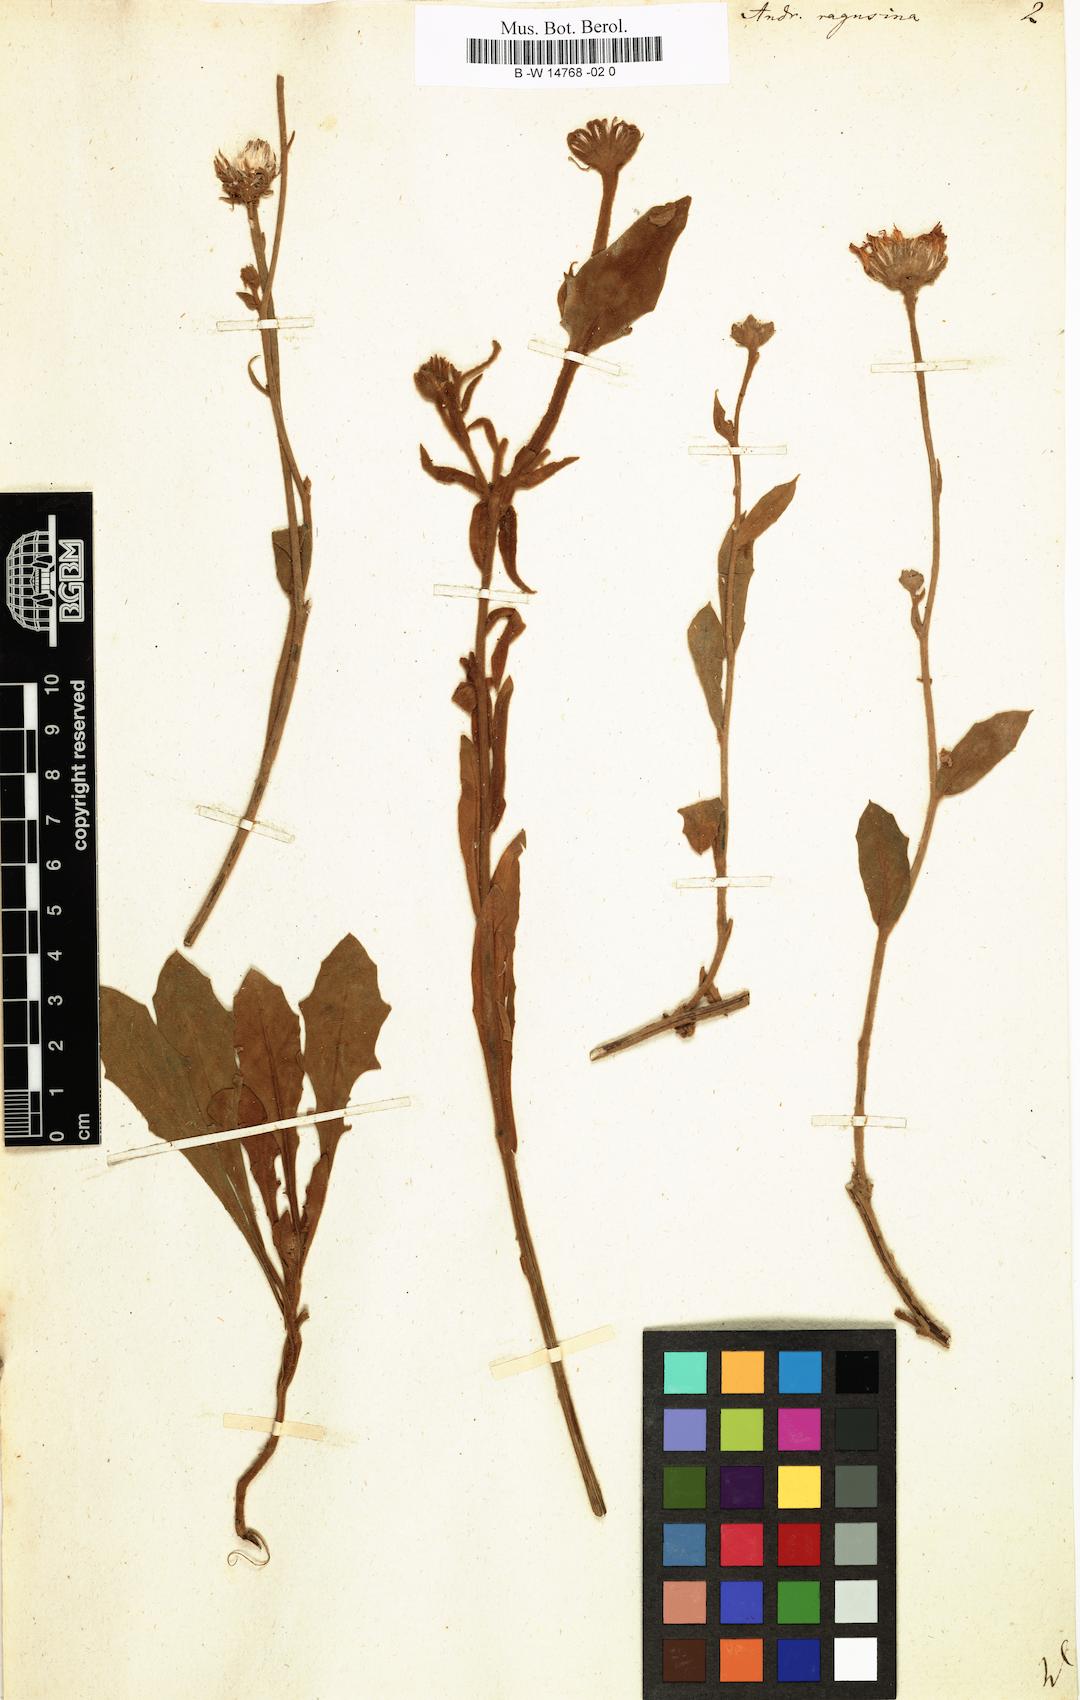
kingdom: Plantae
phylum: Tracheophyta
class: Magnoliopsida
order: Asterales
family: Asteraceae
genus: Andryala
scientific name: Andryala ragusina
